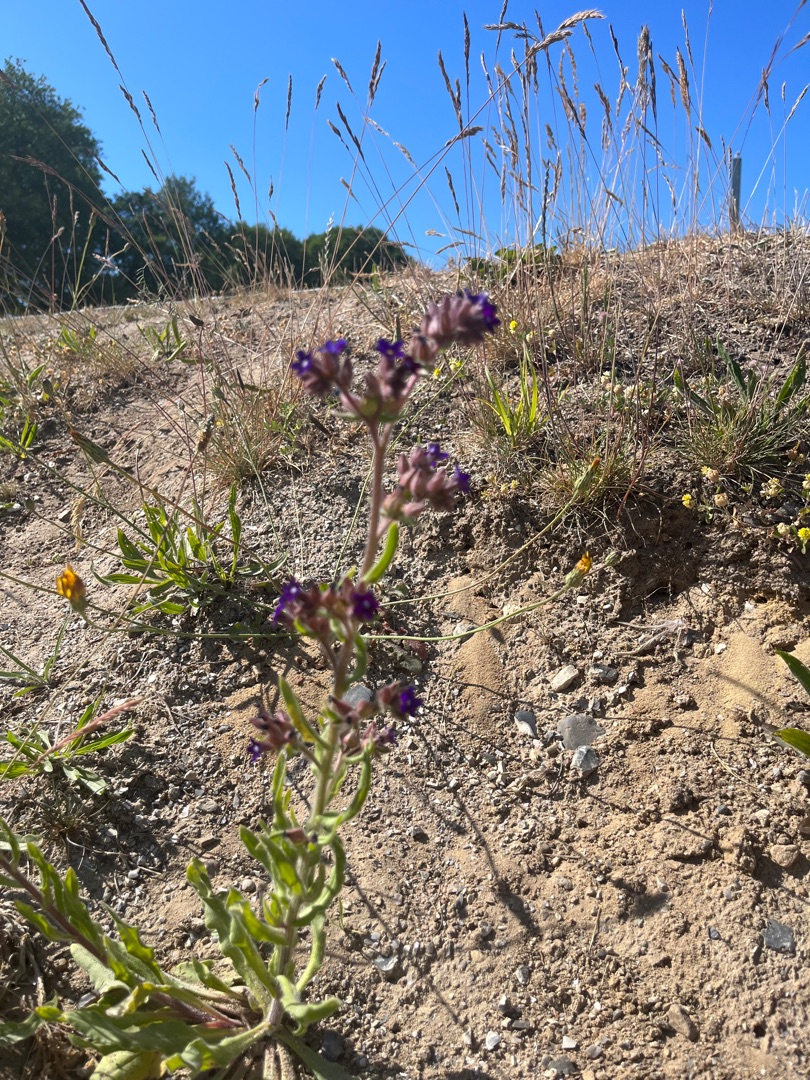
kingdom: Plantae
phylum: Tracheophyta
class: Magnoliopsida
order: Boraginales
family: Boraginaceae
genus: Anchusa
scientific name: Anchusa officinalis
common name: Læge-oksetunge
